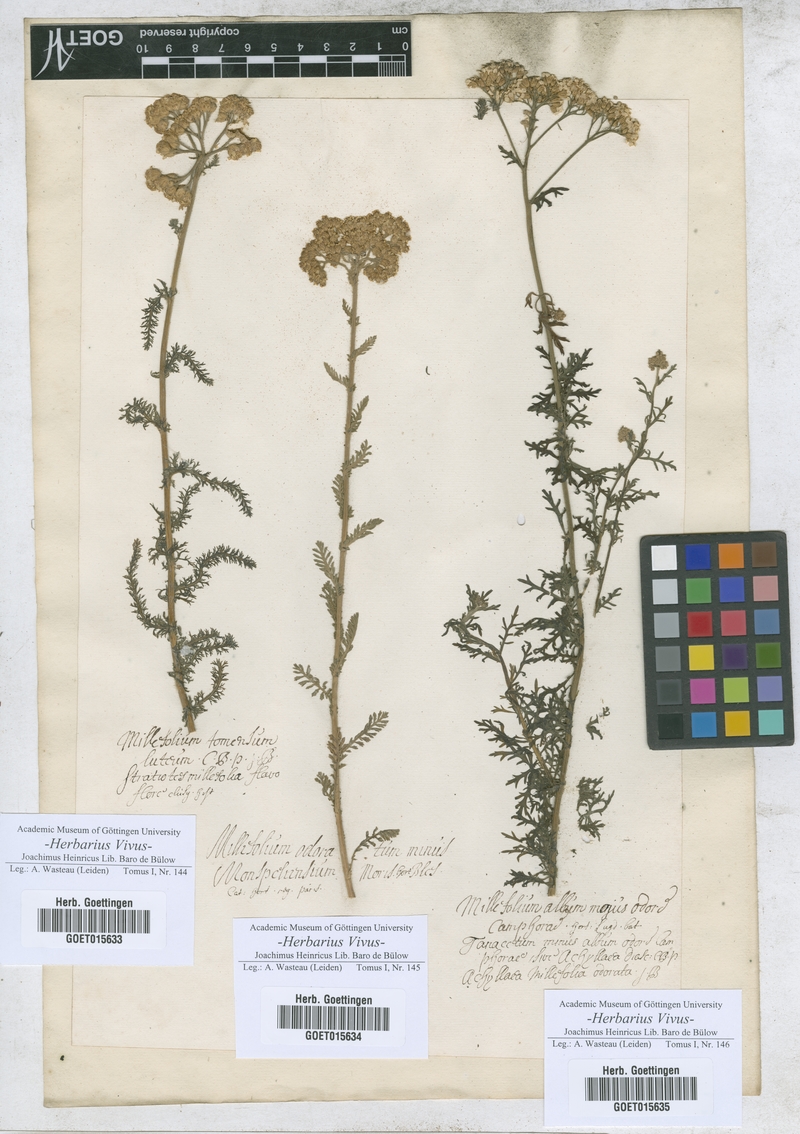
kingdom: Plantae
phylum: Tracheophyta
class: Magnoliopsida
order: Asterales
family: Asteraceae
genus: Achillea
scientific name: Achillea tomentosa
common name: Yellow milfoil
